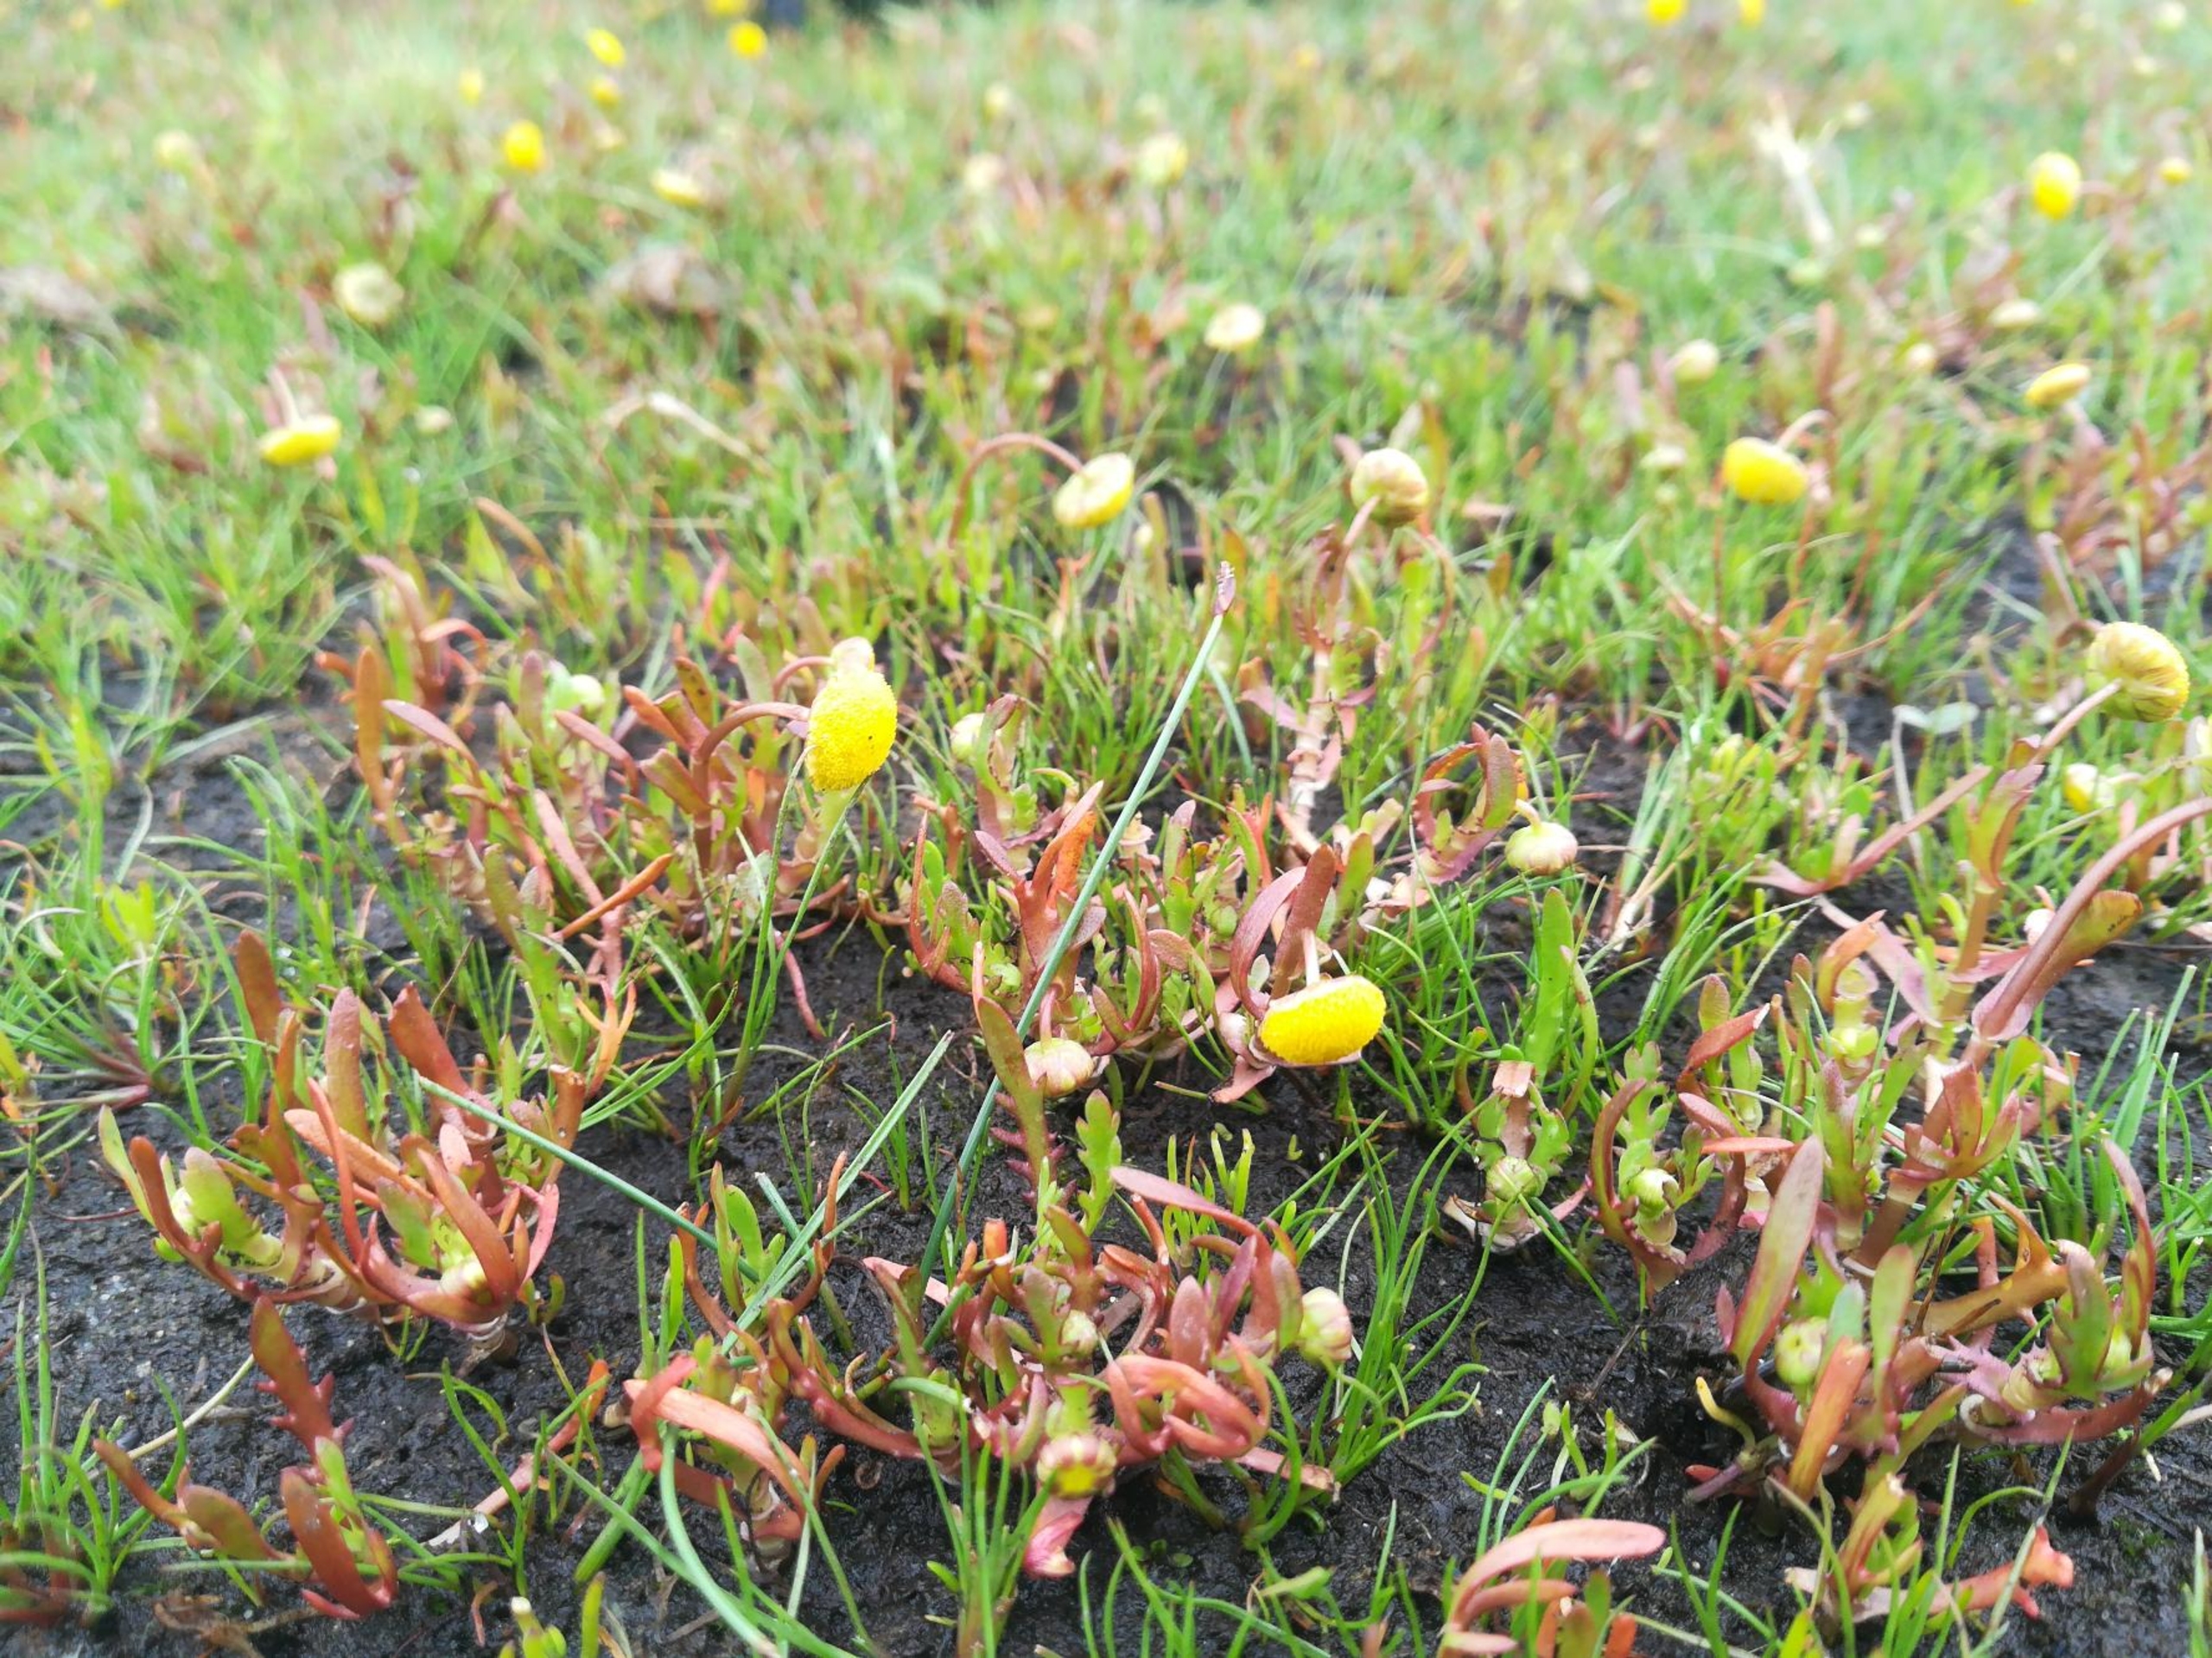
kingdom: Plantae
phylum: Tracheophyta
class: Magnoliopsida
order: Asterales
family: Asteraceae
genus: Cotula
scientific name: Cotula coronopifolia
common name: Firkløft
